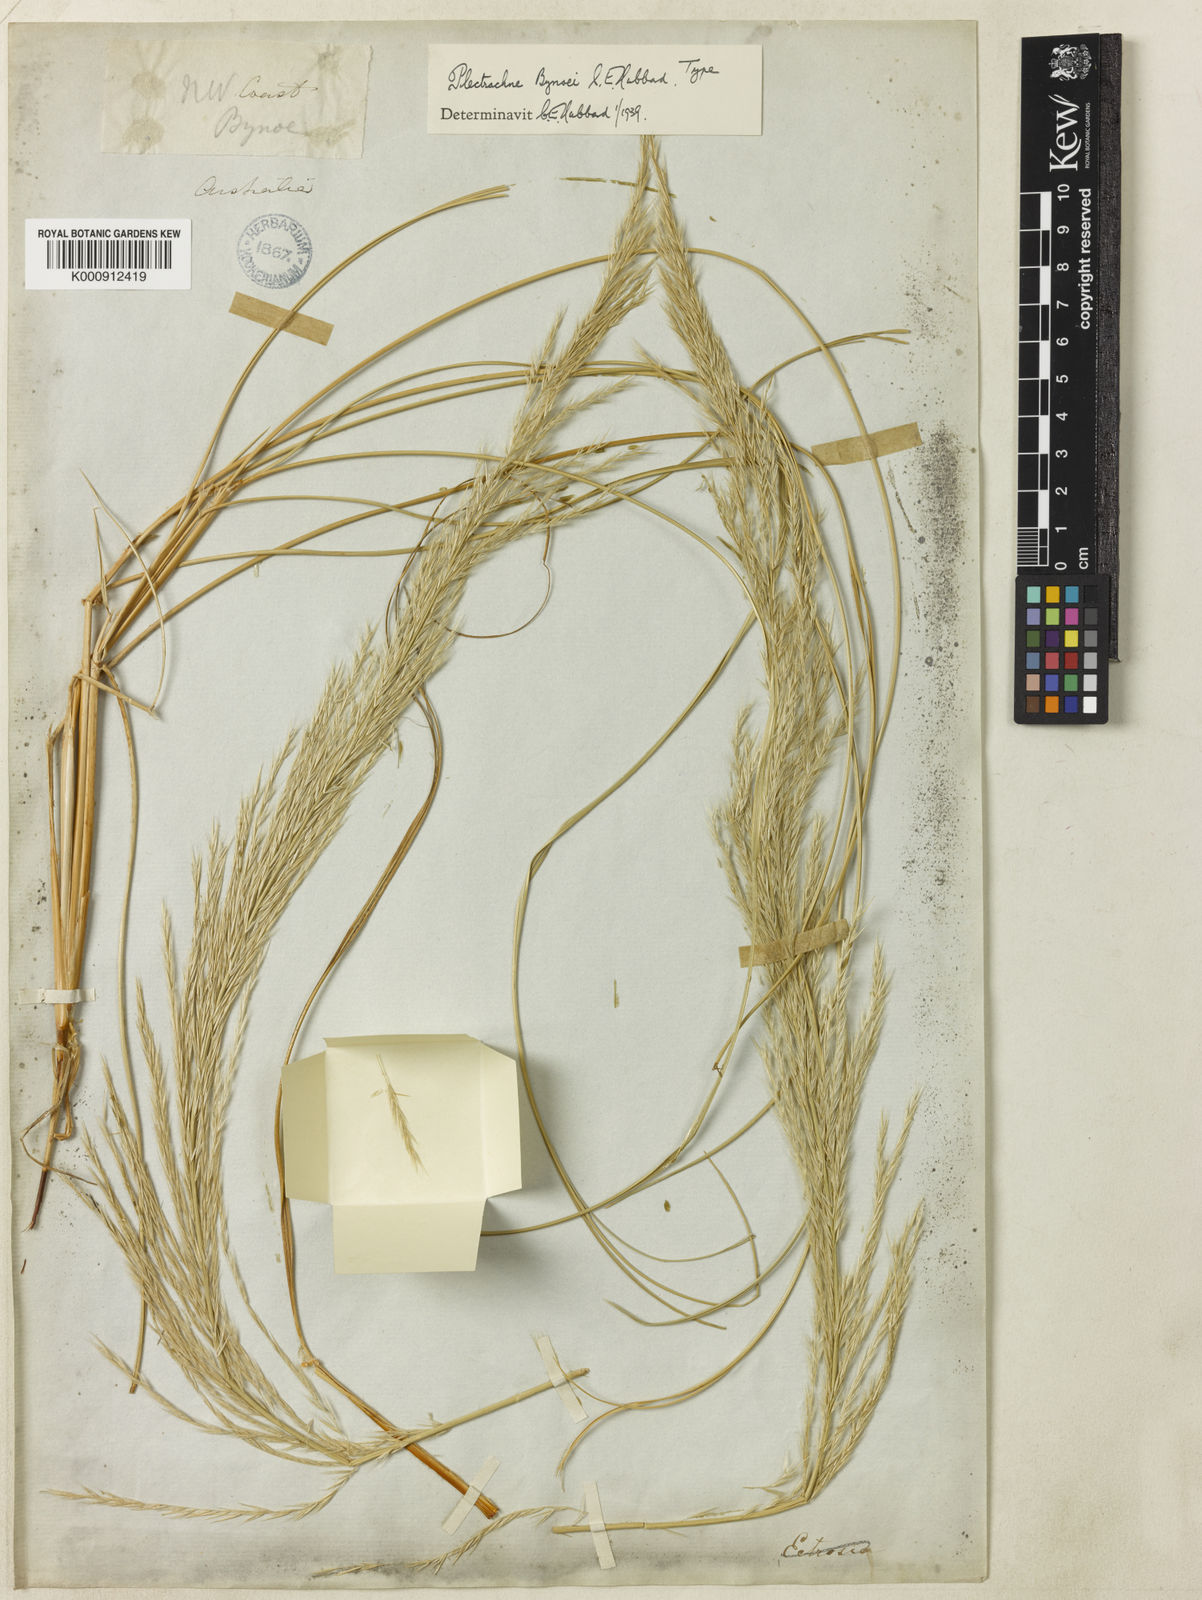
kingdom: Plantae
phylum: Tracheophyta
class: Liliopsida
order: Poales
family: Poaceae
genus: Triodia
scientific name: Triodia bynoei
